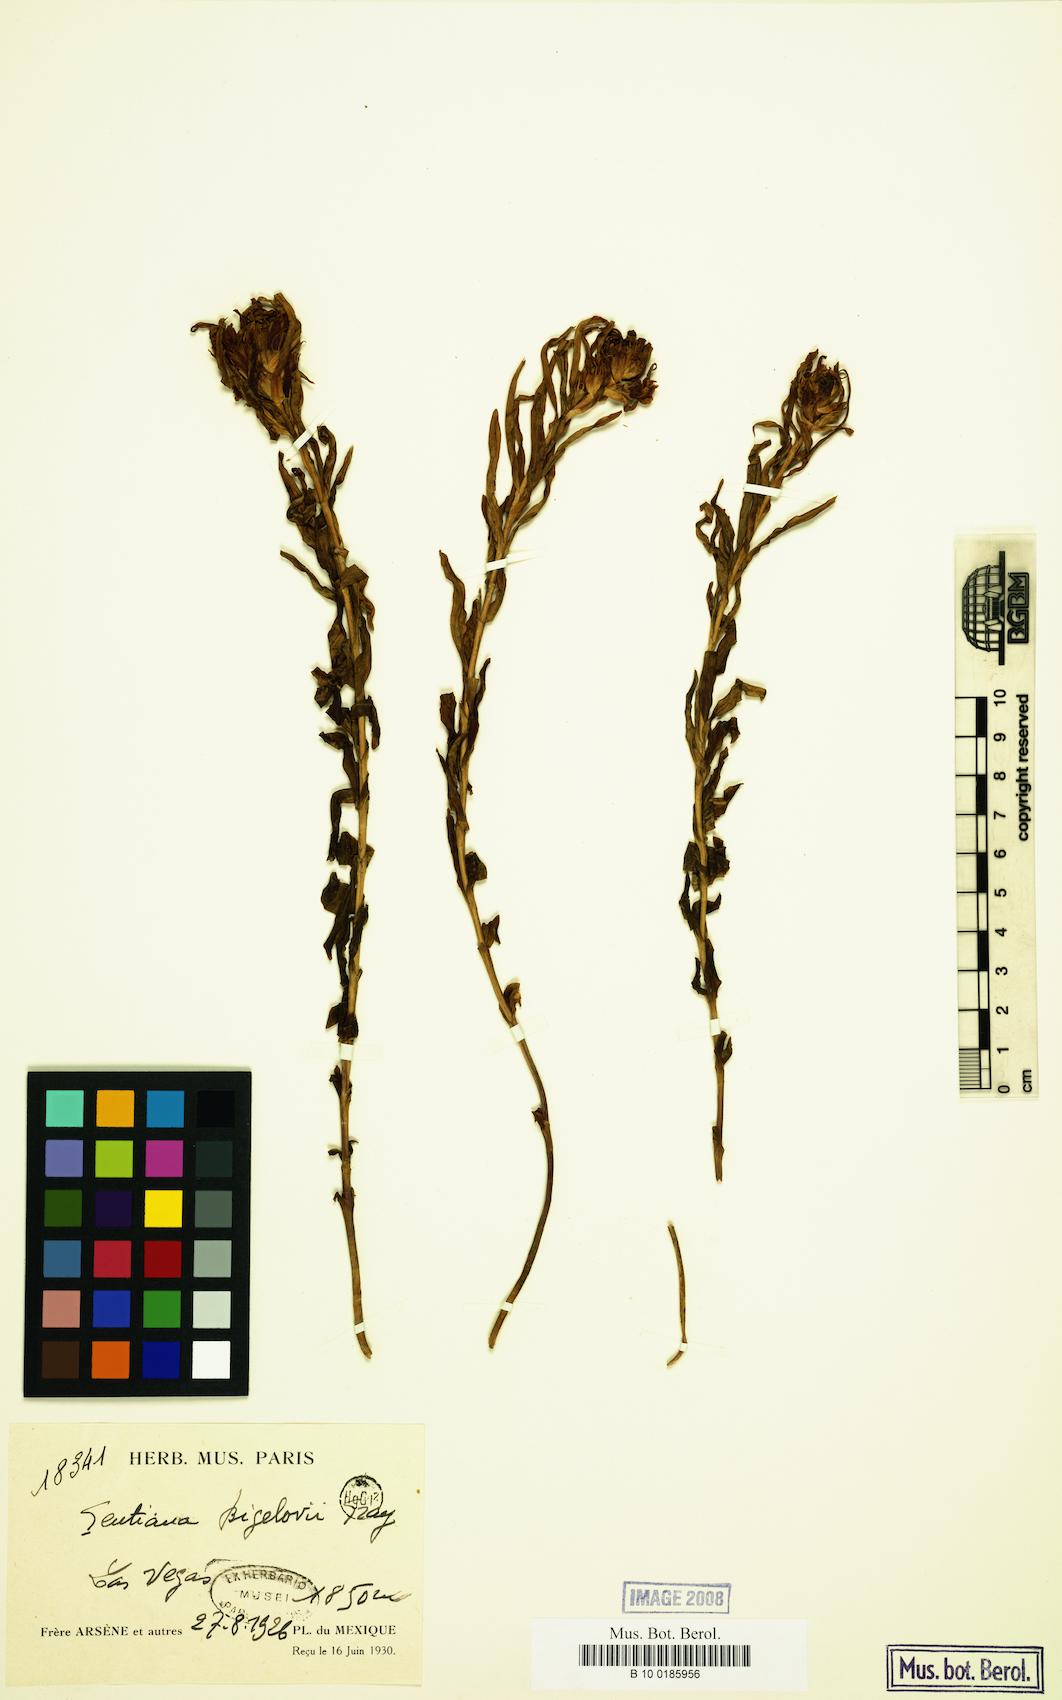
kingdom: Plantae
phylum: Tracheophyta
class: Magnoliopsida
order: Gentianales
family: Gentianaceae
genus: Gentiana
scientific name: Gentiana affinis
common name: Rocky mountain gentian
